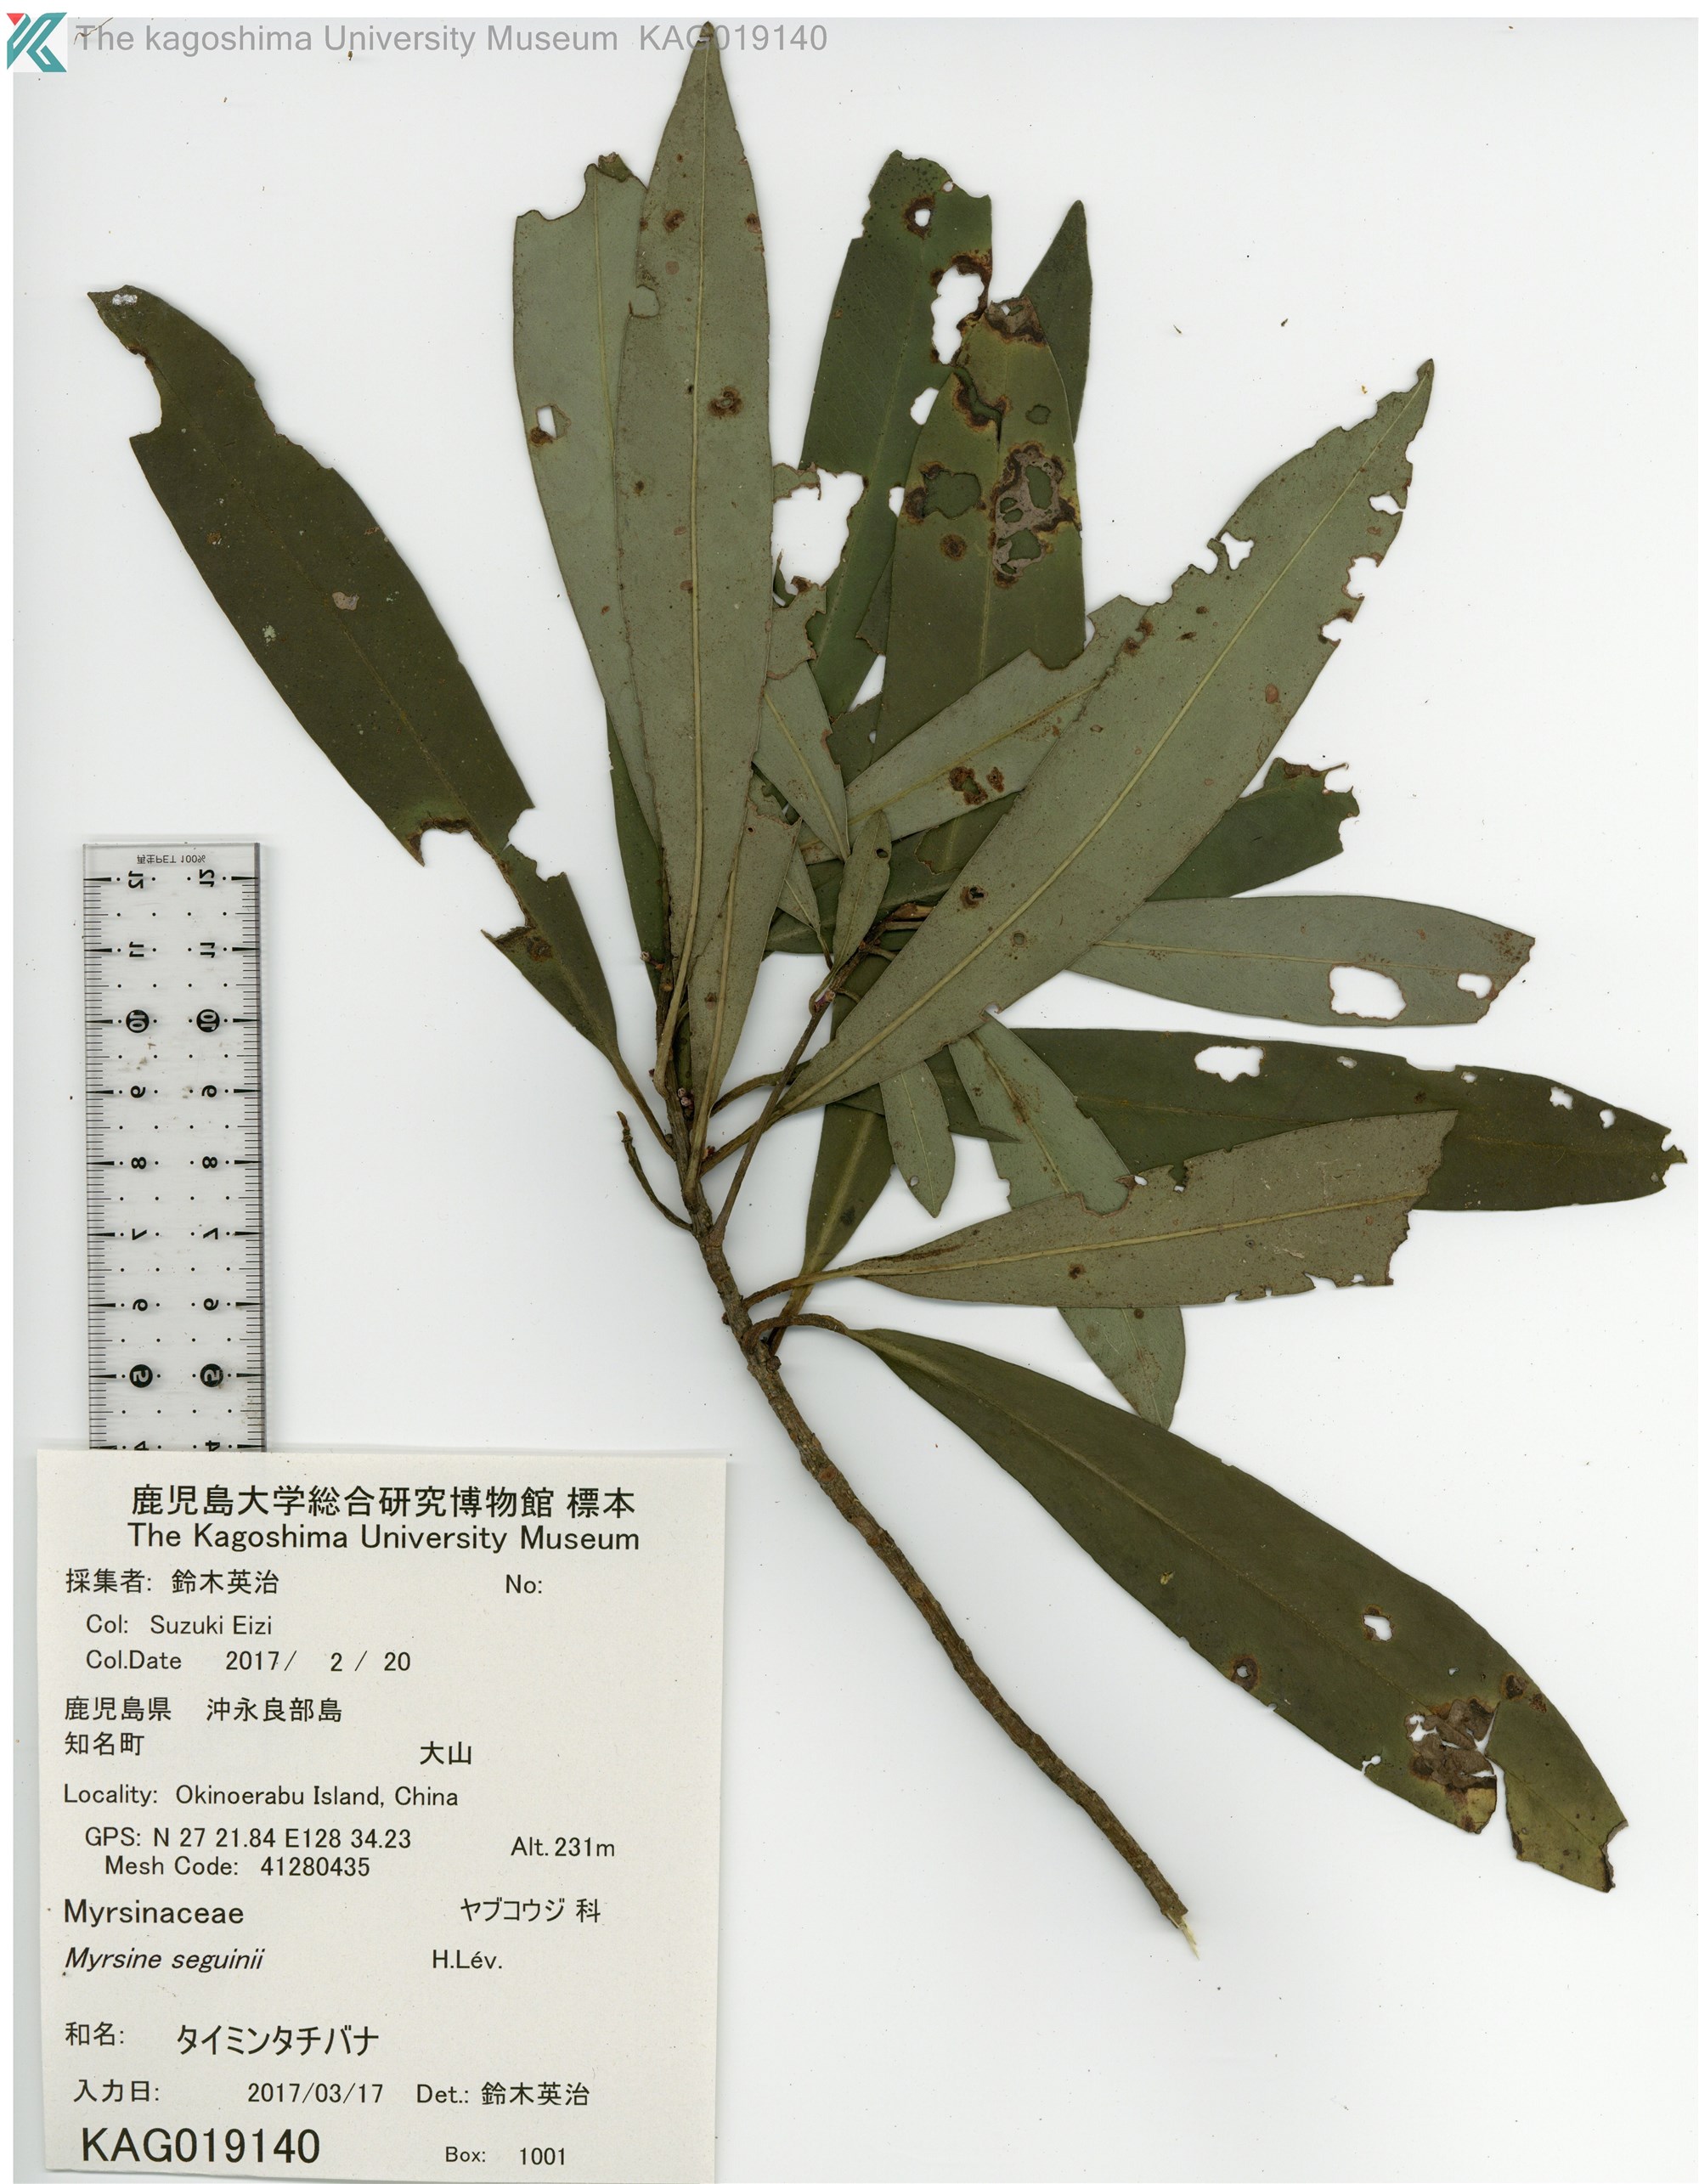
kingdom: Plantae
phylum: Tracheophyta
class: Magnoliopsida
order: Ericales
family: Primulaceae
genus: Myrsine
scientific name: Myrsine seguinii
